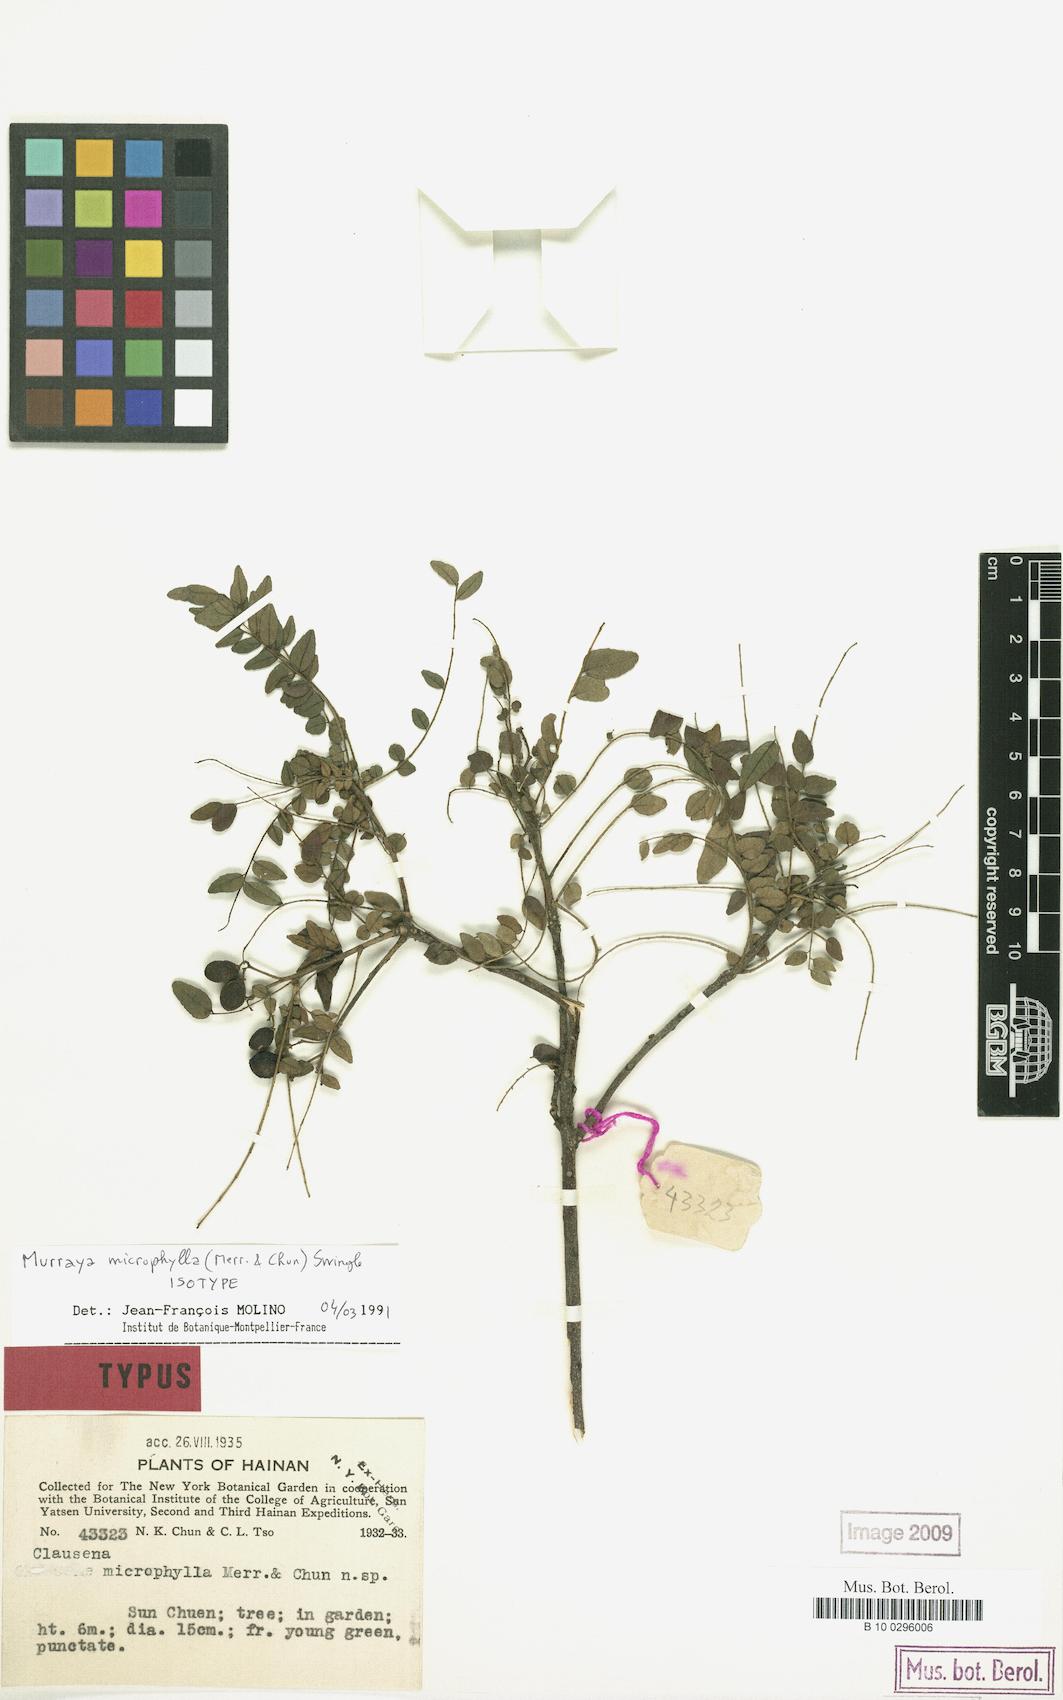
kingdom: Plantae
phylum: Tracheophyta
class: Magnoliopsida
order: Sapindales
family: Rutaceae
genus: Murraya
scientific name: Murraya microphylla
